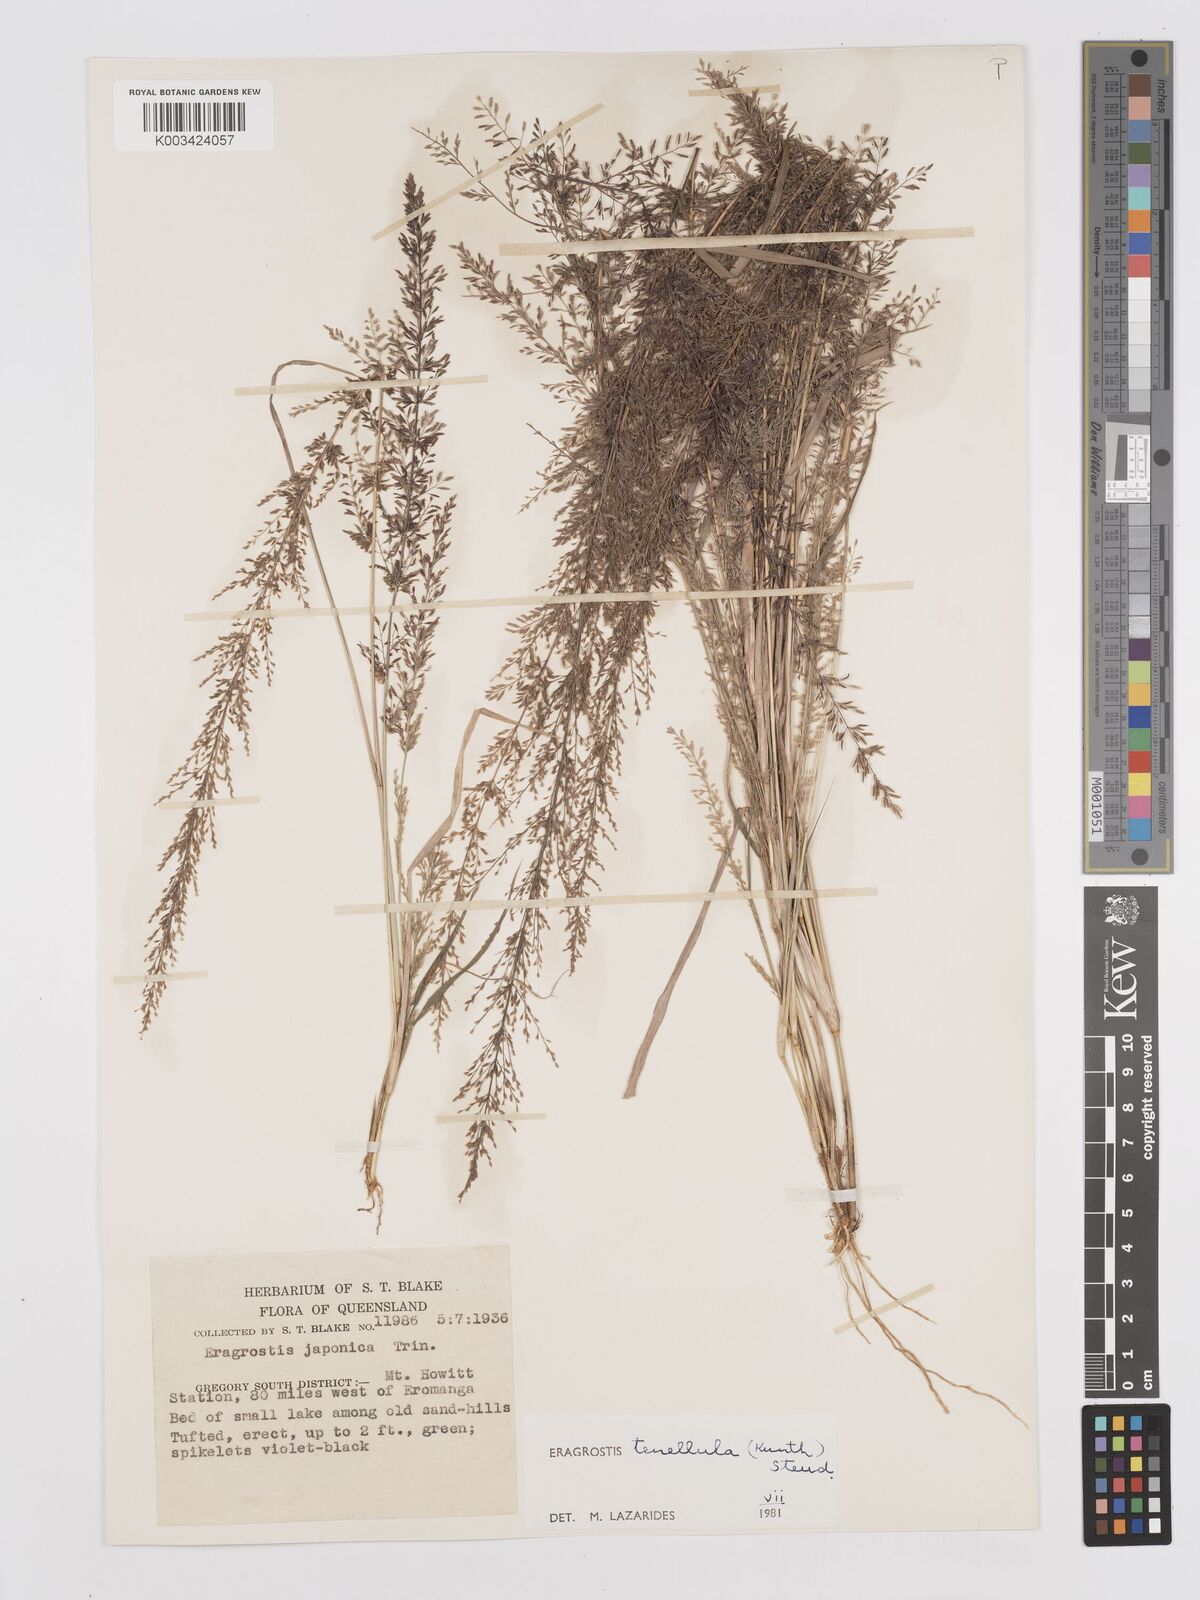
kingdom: Plantae
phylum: Tracheophyta
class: Liliopsida
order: Poales
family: Poaceae
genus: Eragrostis
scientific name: Eragrostis tenellula
